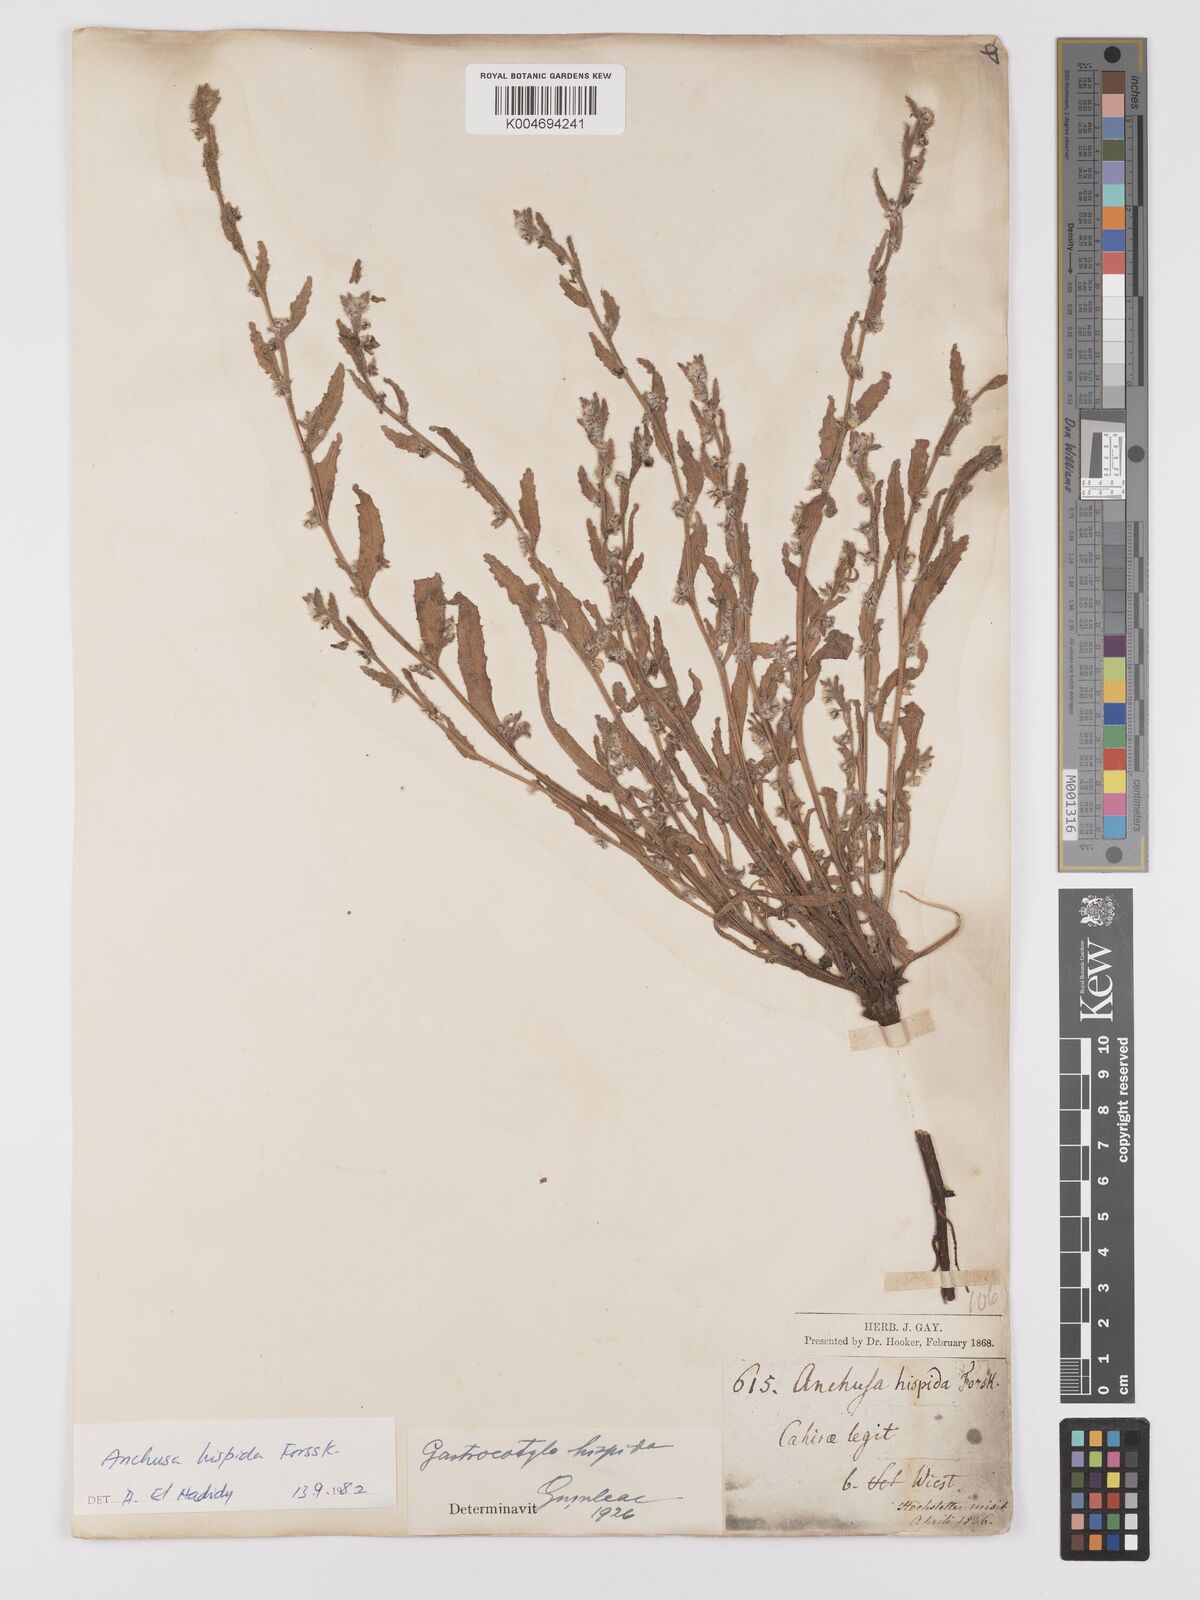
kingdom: Plantae
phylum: Tracheophyta
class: Magnoliopsida
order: Boraginales
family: Boraginaceae
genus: Gastrocotyle
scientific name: Gastrocotyle hispida
